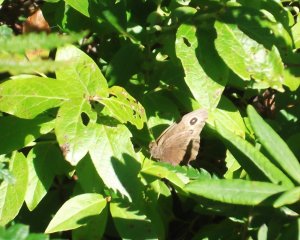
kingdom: Animalia
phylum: Arthropoda
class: Insecta
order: Lepidoptera
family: Nymphalidae
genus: Cercyonis
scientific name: Cercyonis pegala
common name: Common Wood-Nymph
